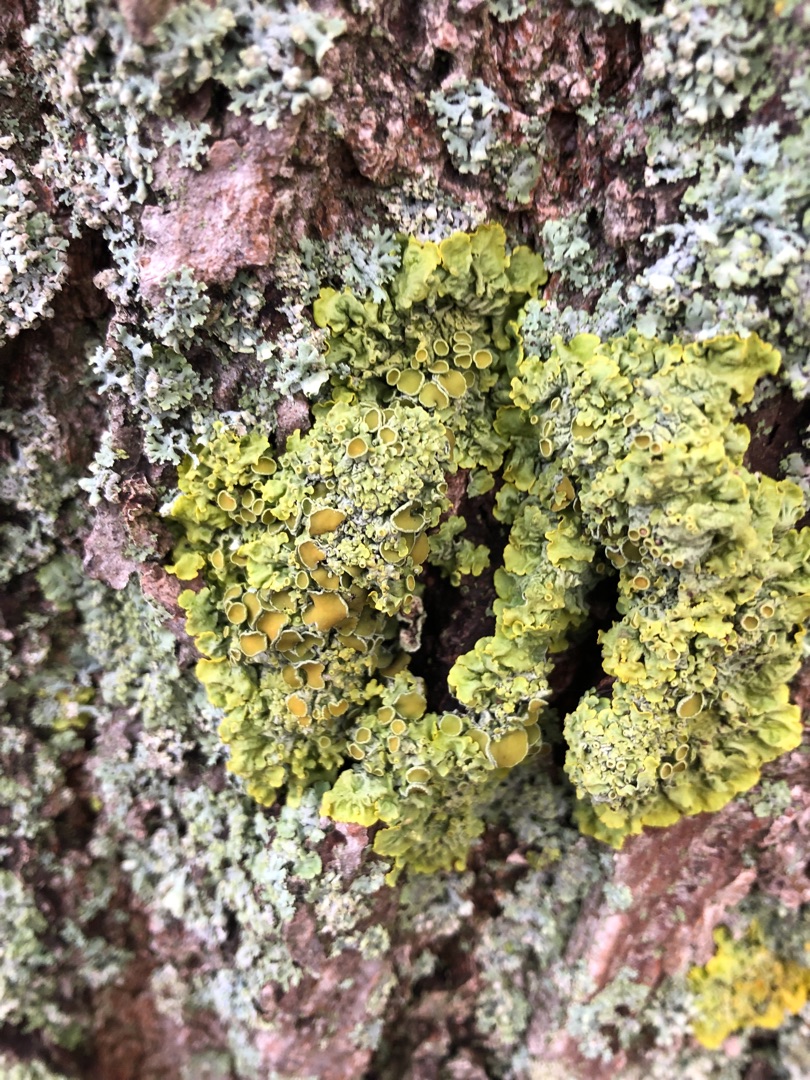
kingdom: Fungi
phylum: Ascomycota
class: Lecanoromycetes
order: Teloschistales
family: Teloschistaceae
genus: Xanthoria
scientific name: Xanthoria parietina
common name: Almindelig væggelav
